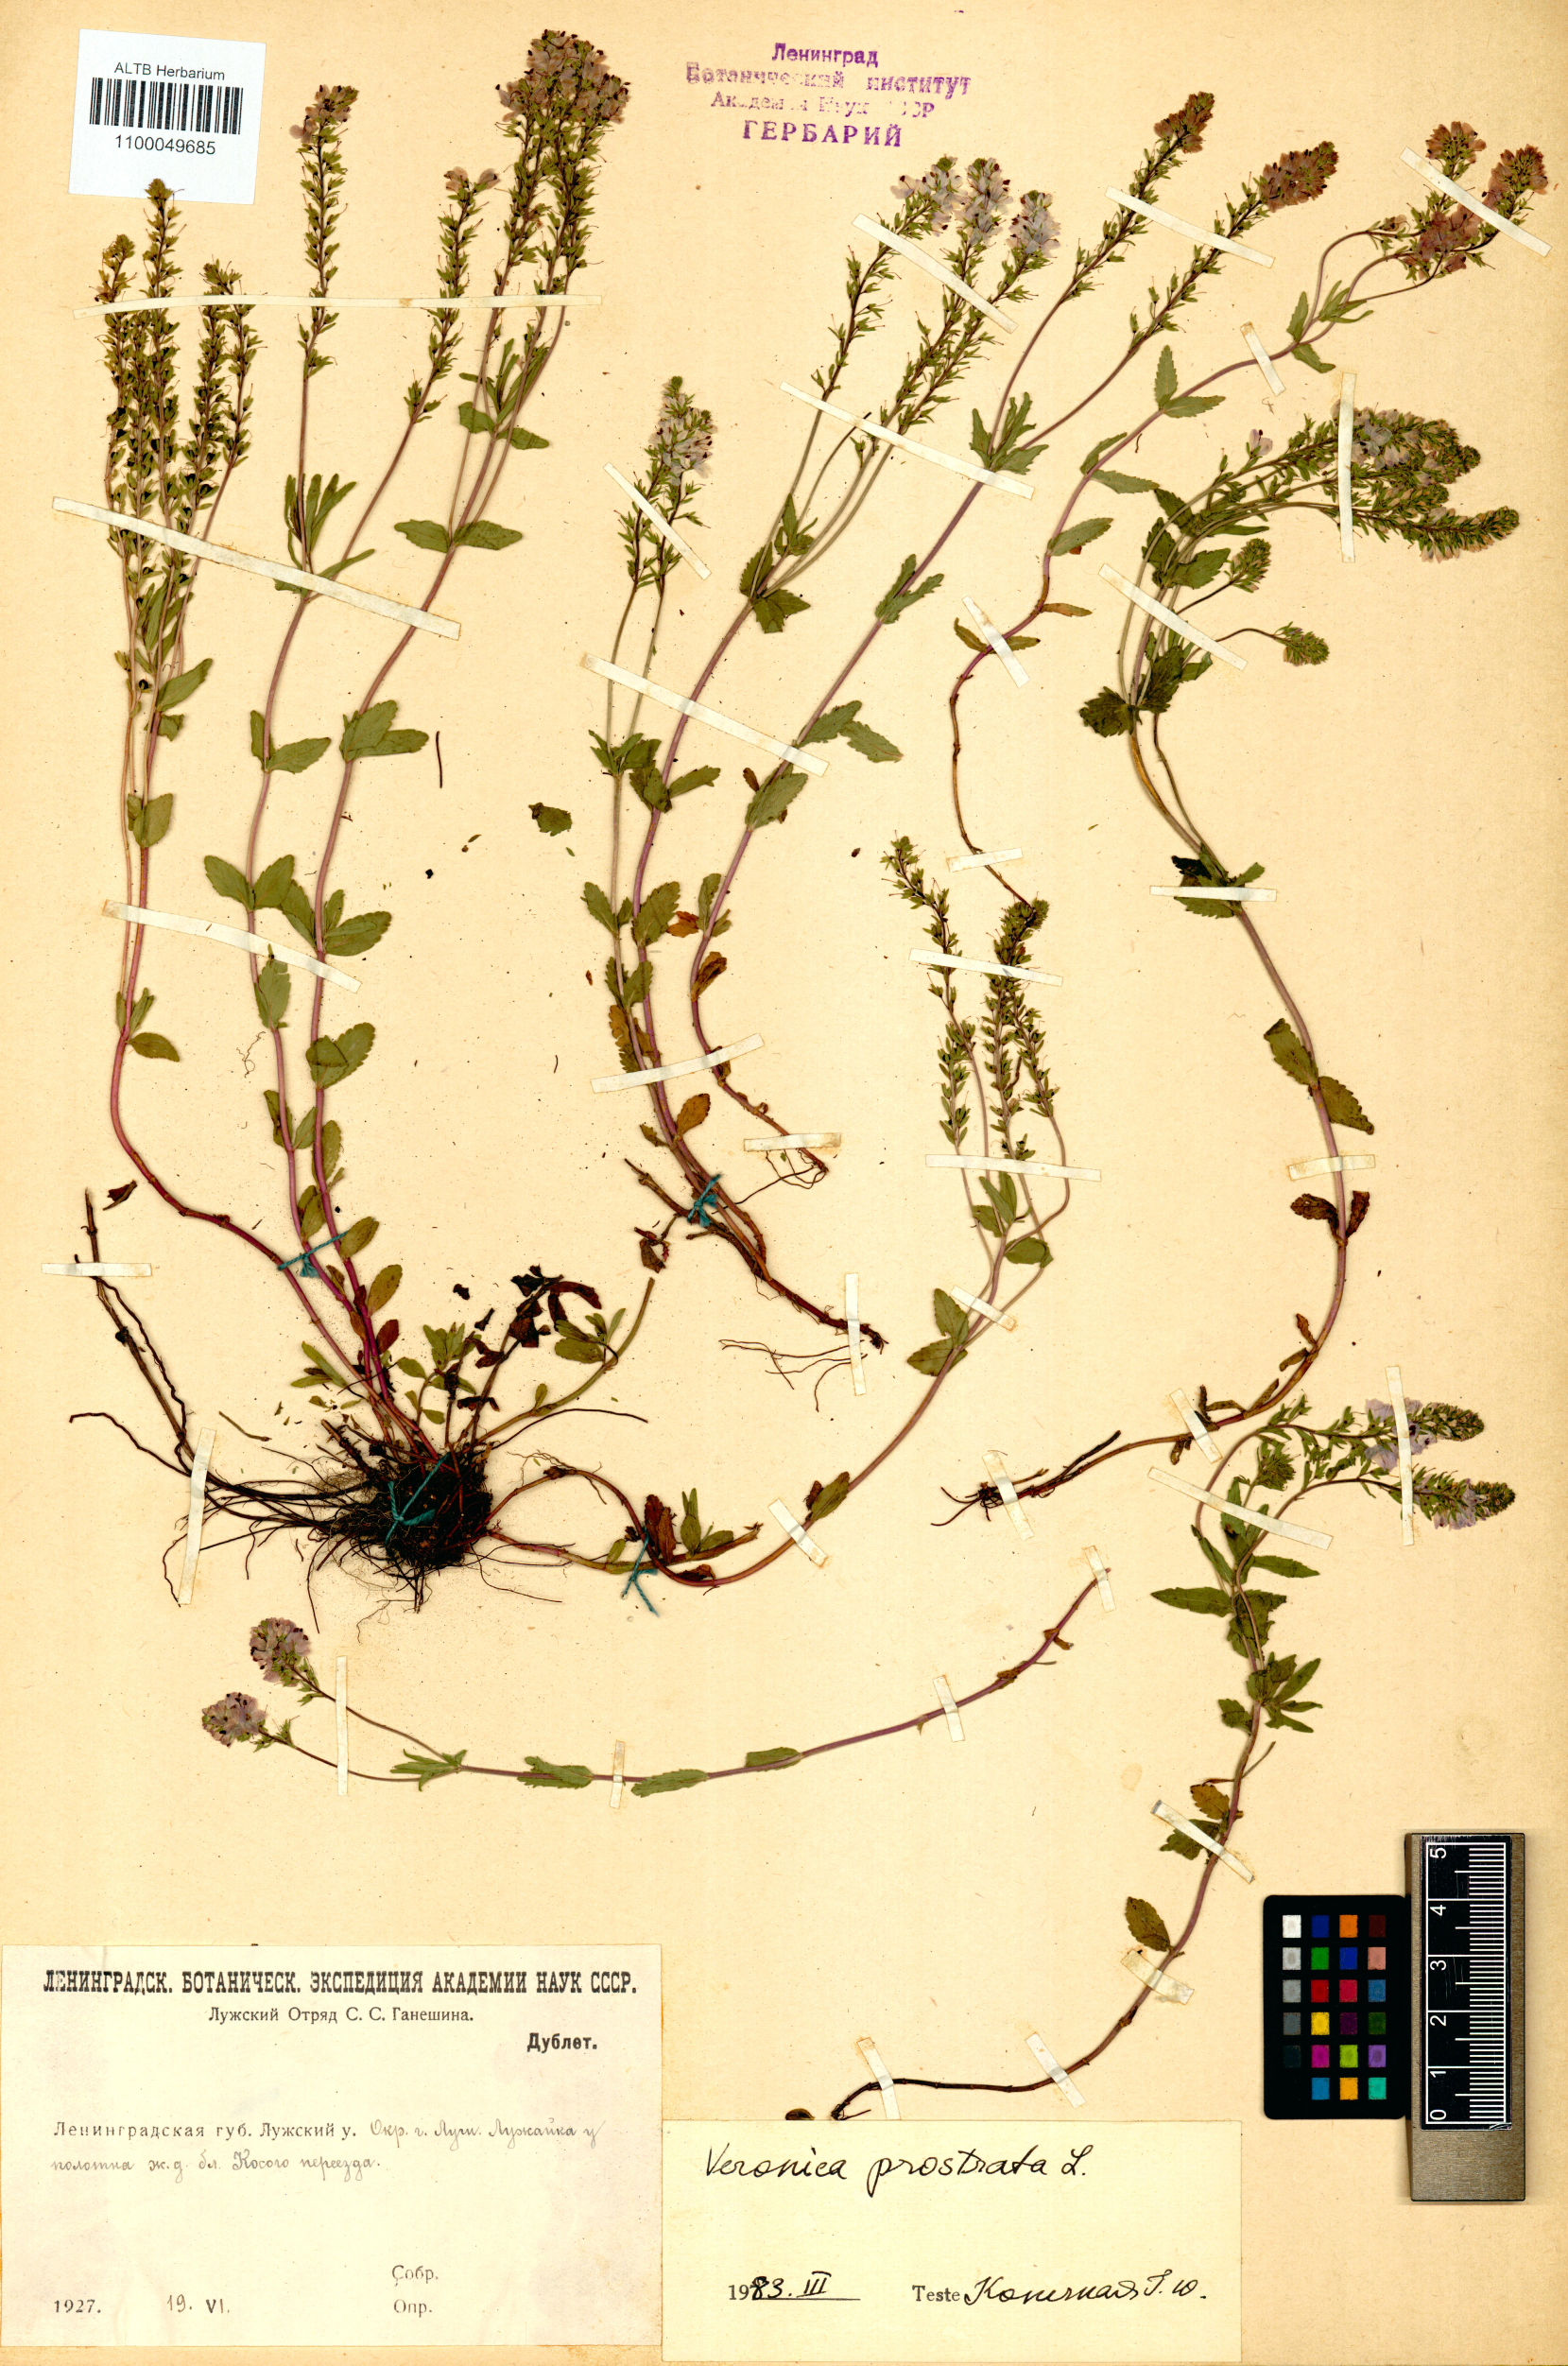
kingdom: Plantae
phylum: Tracheophyta
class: Magnoliopsida
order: Lamiales
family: Plantaginaceae
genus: Veronica
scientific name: Veronica prostrata
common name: Prostrate speedwell
